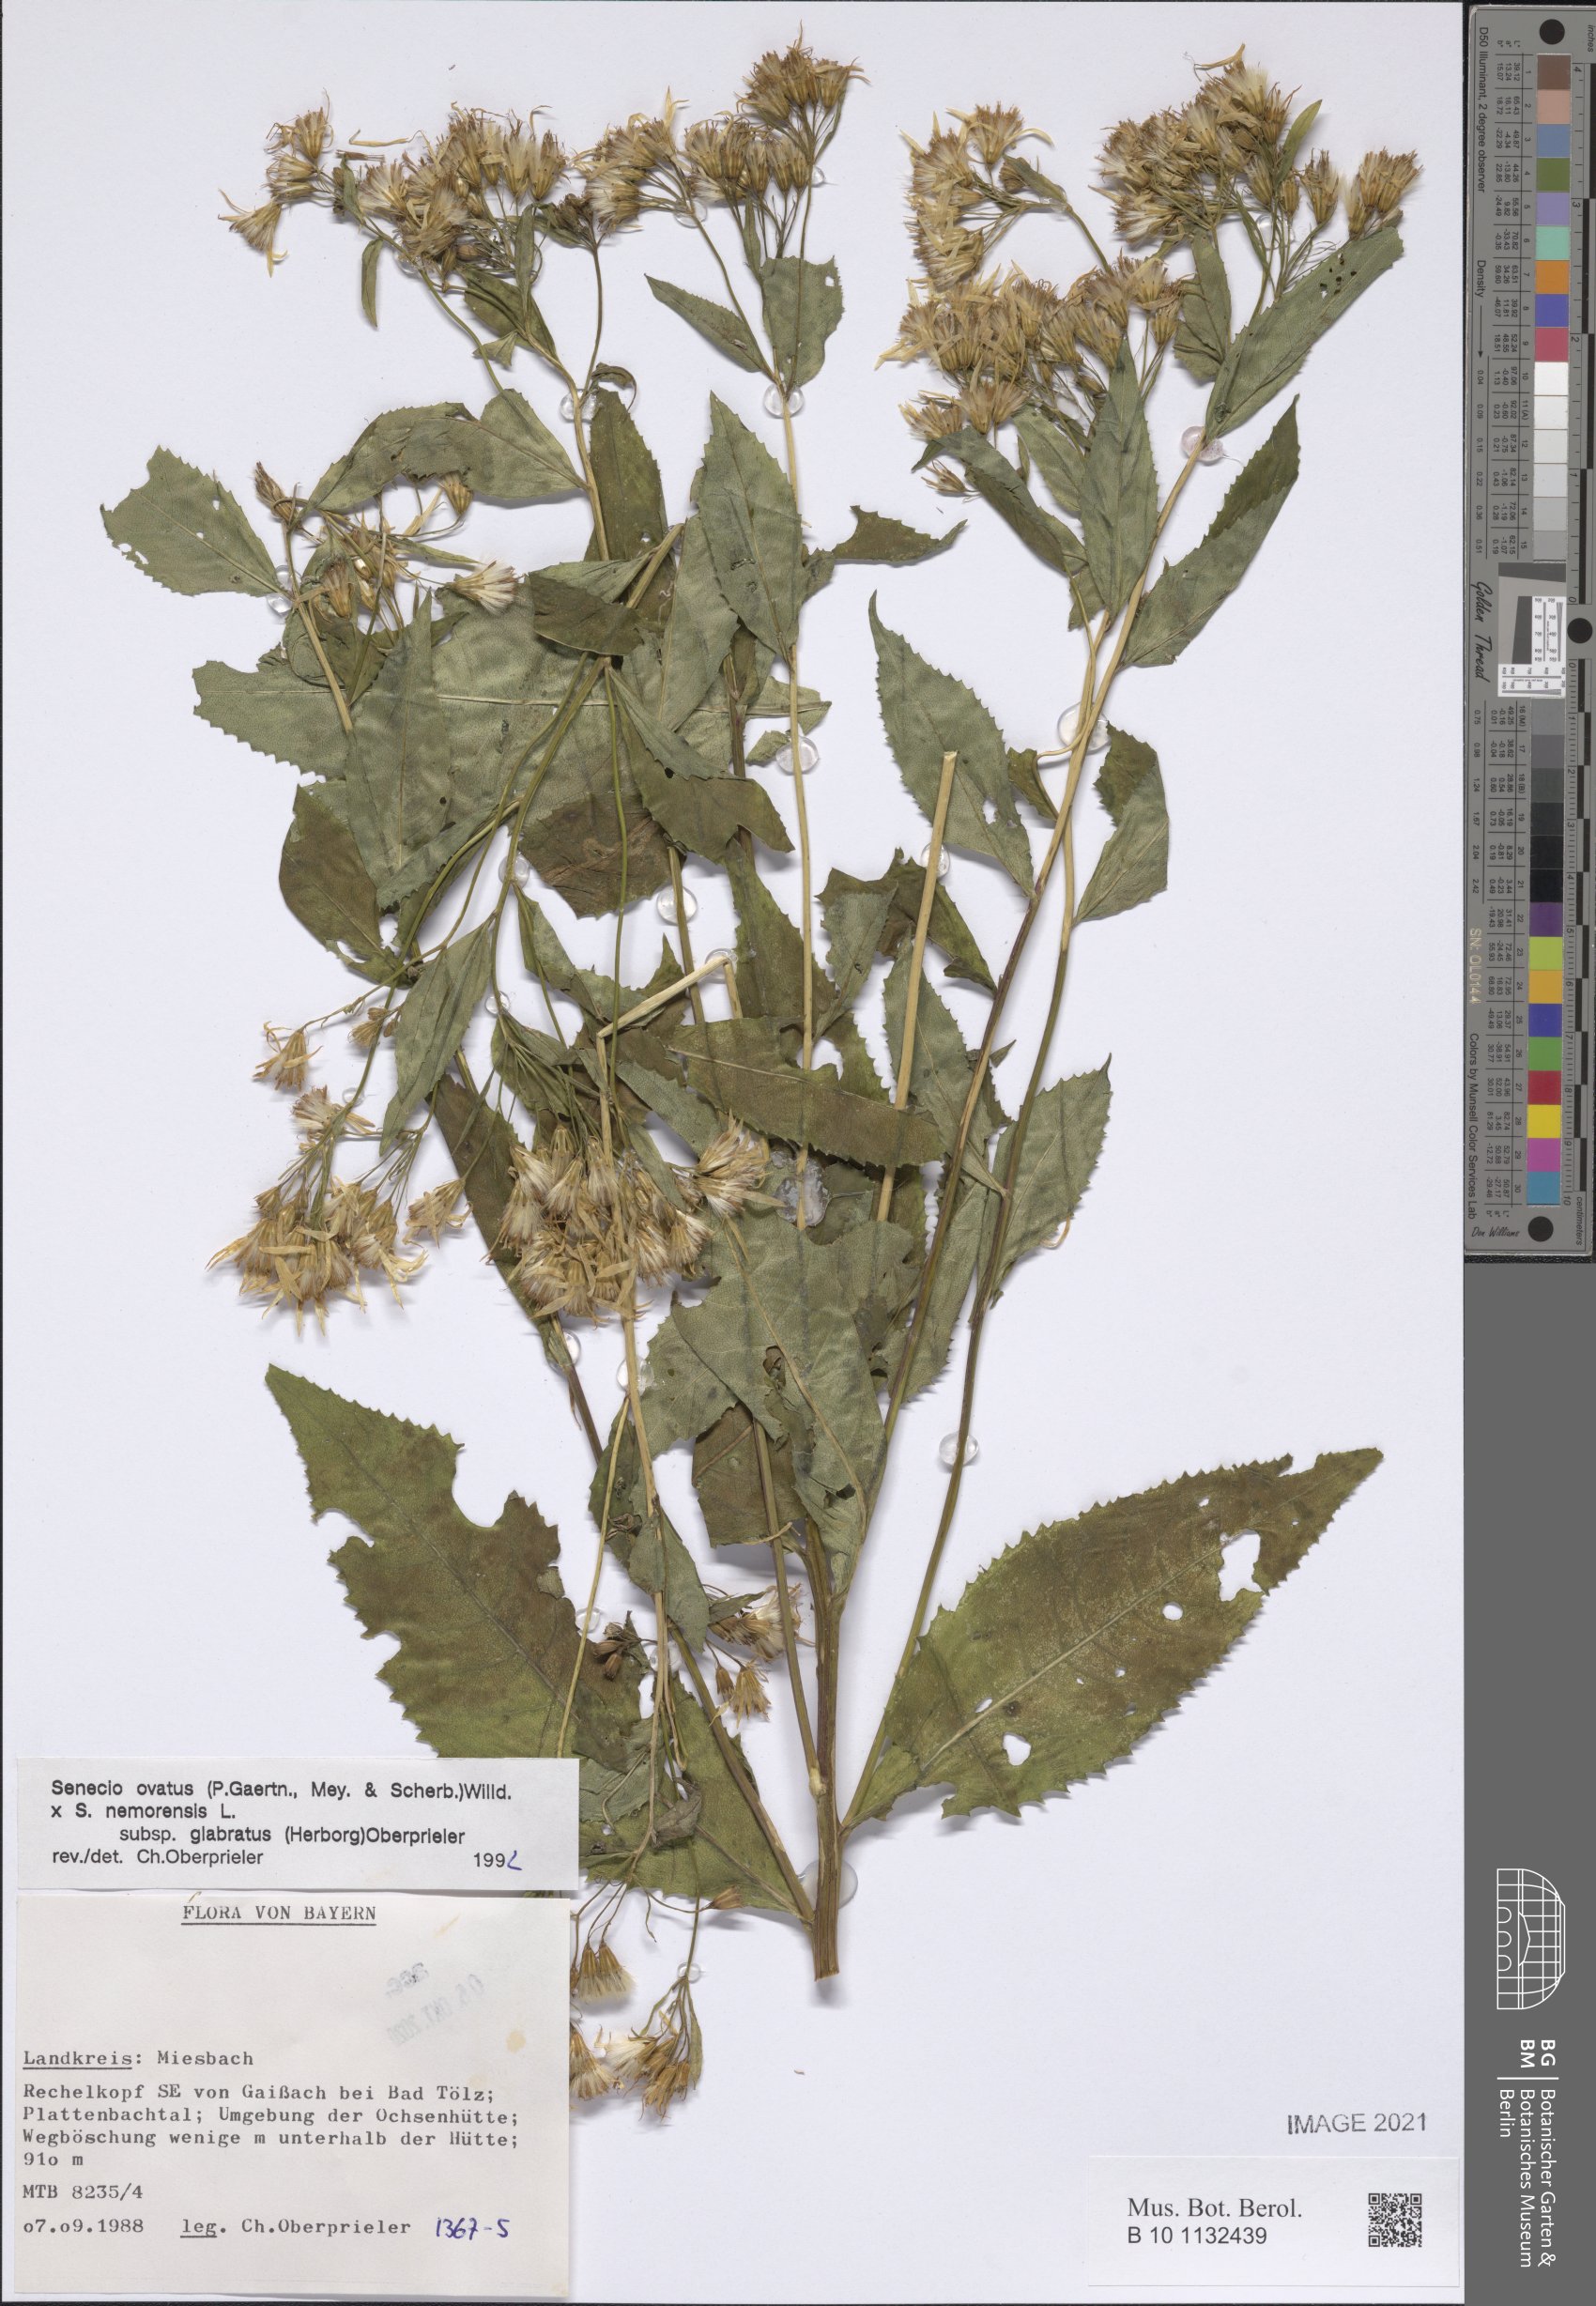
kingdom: Plantae
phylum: Tracheophyta
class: Magnoliopsida
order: Asterales
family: Asteraceae
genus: Senecio
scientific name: Senecio ovatus
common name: Wood ragwort
